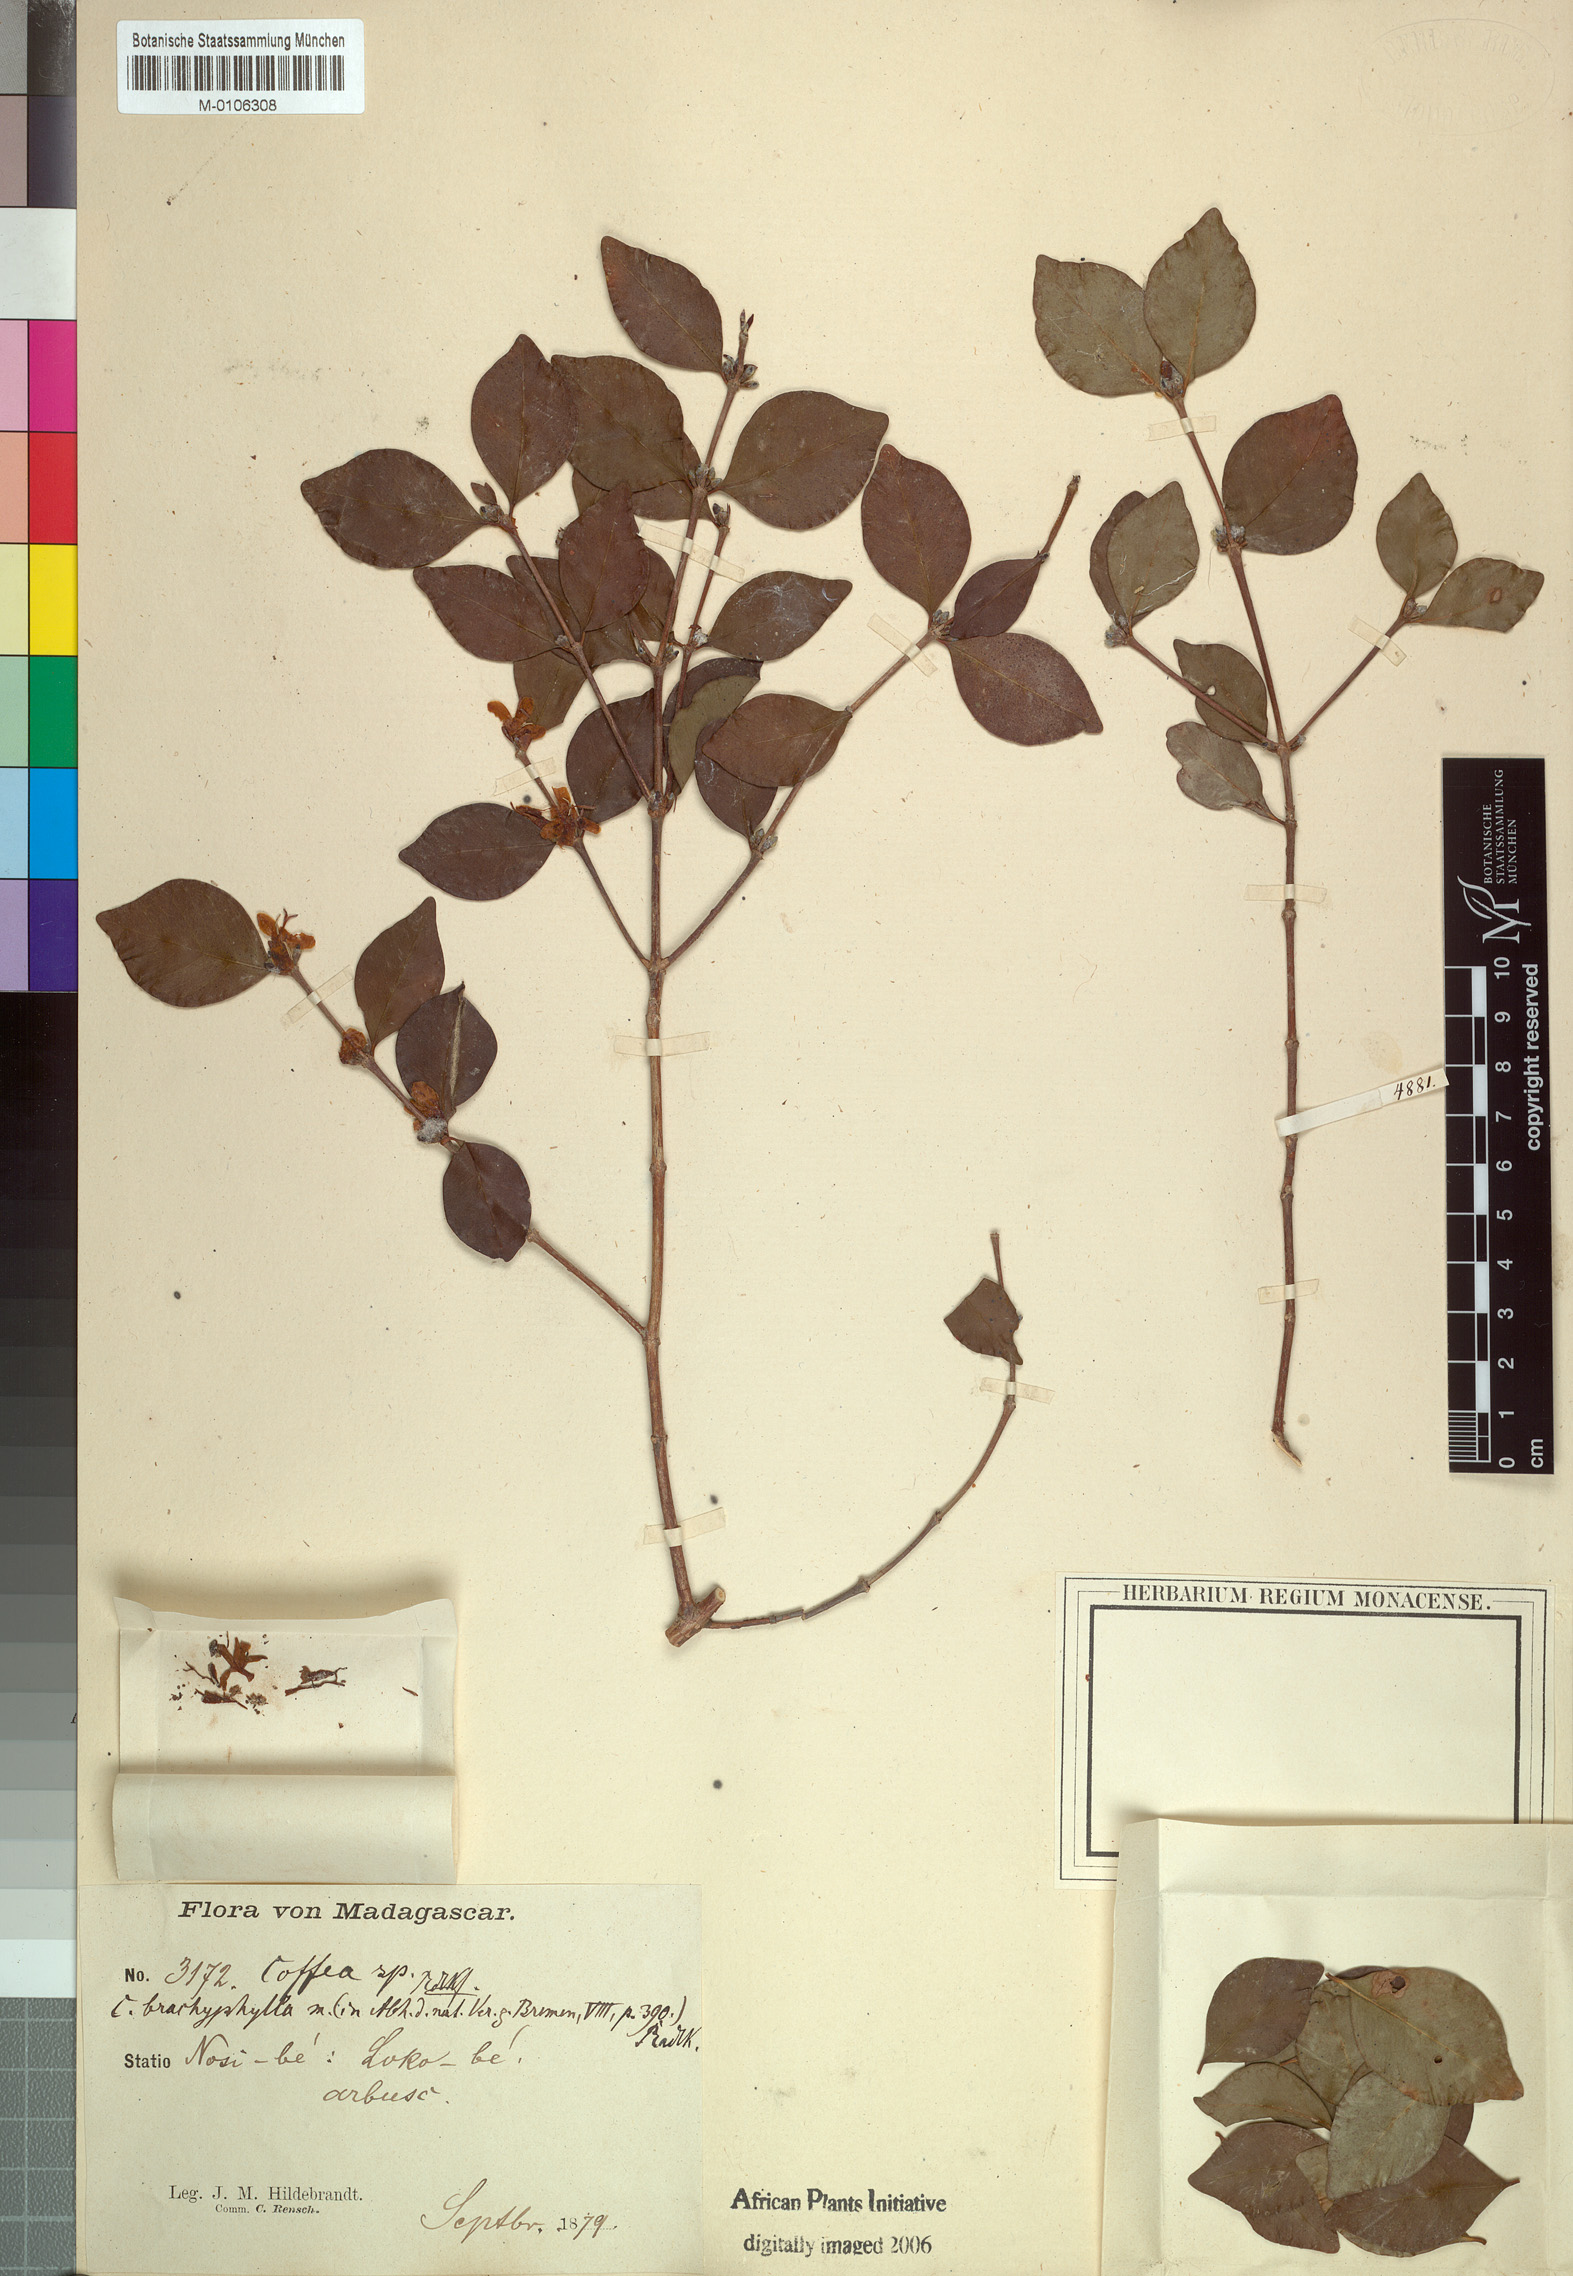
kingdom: Plantae
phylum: Tracheophyta
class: Magnoliopsida
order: Gentianales
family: Rubiaceae
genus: Coffea
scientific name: Coffea pervilleana
